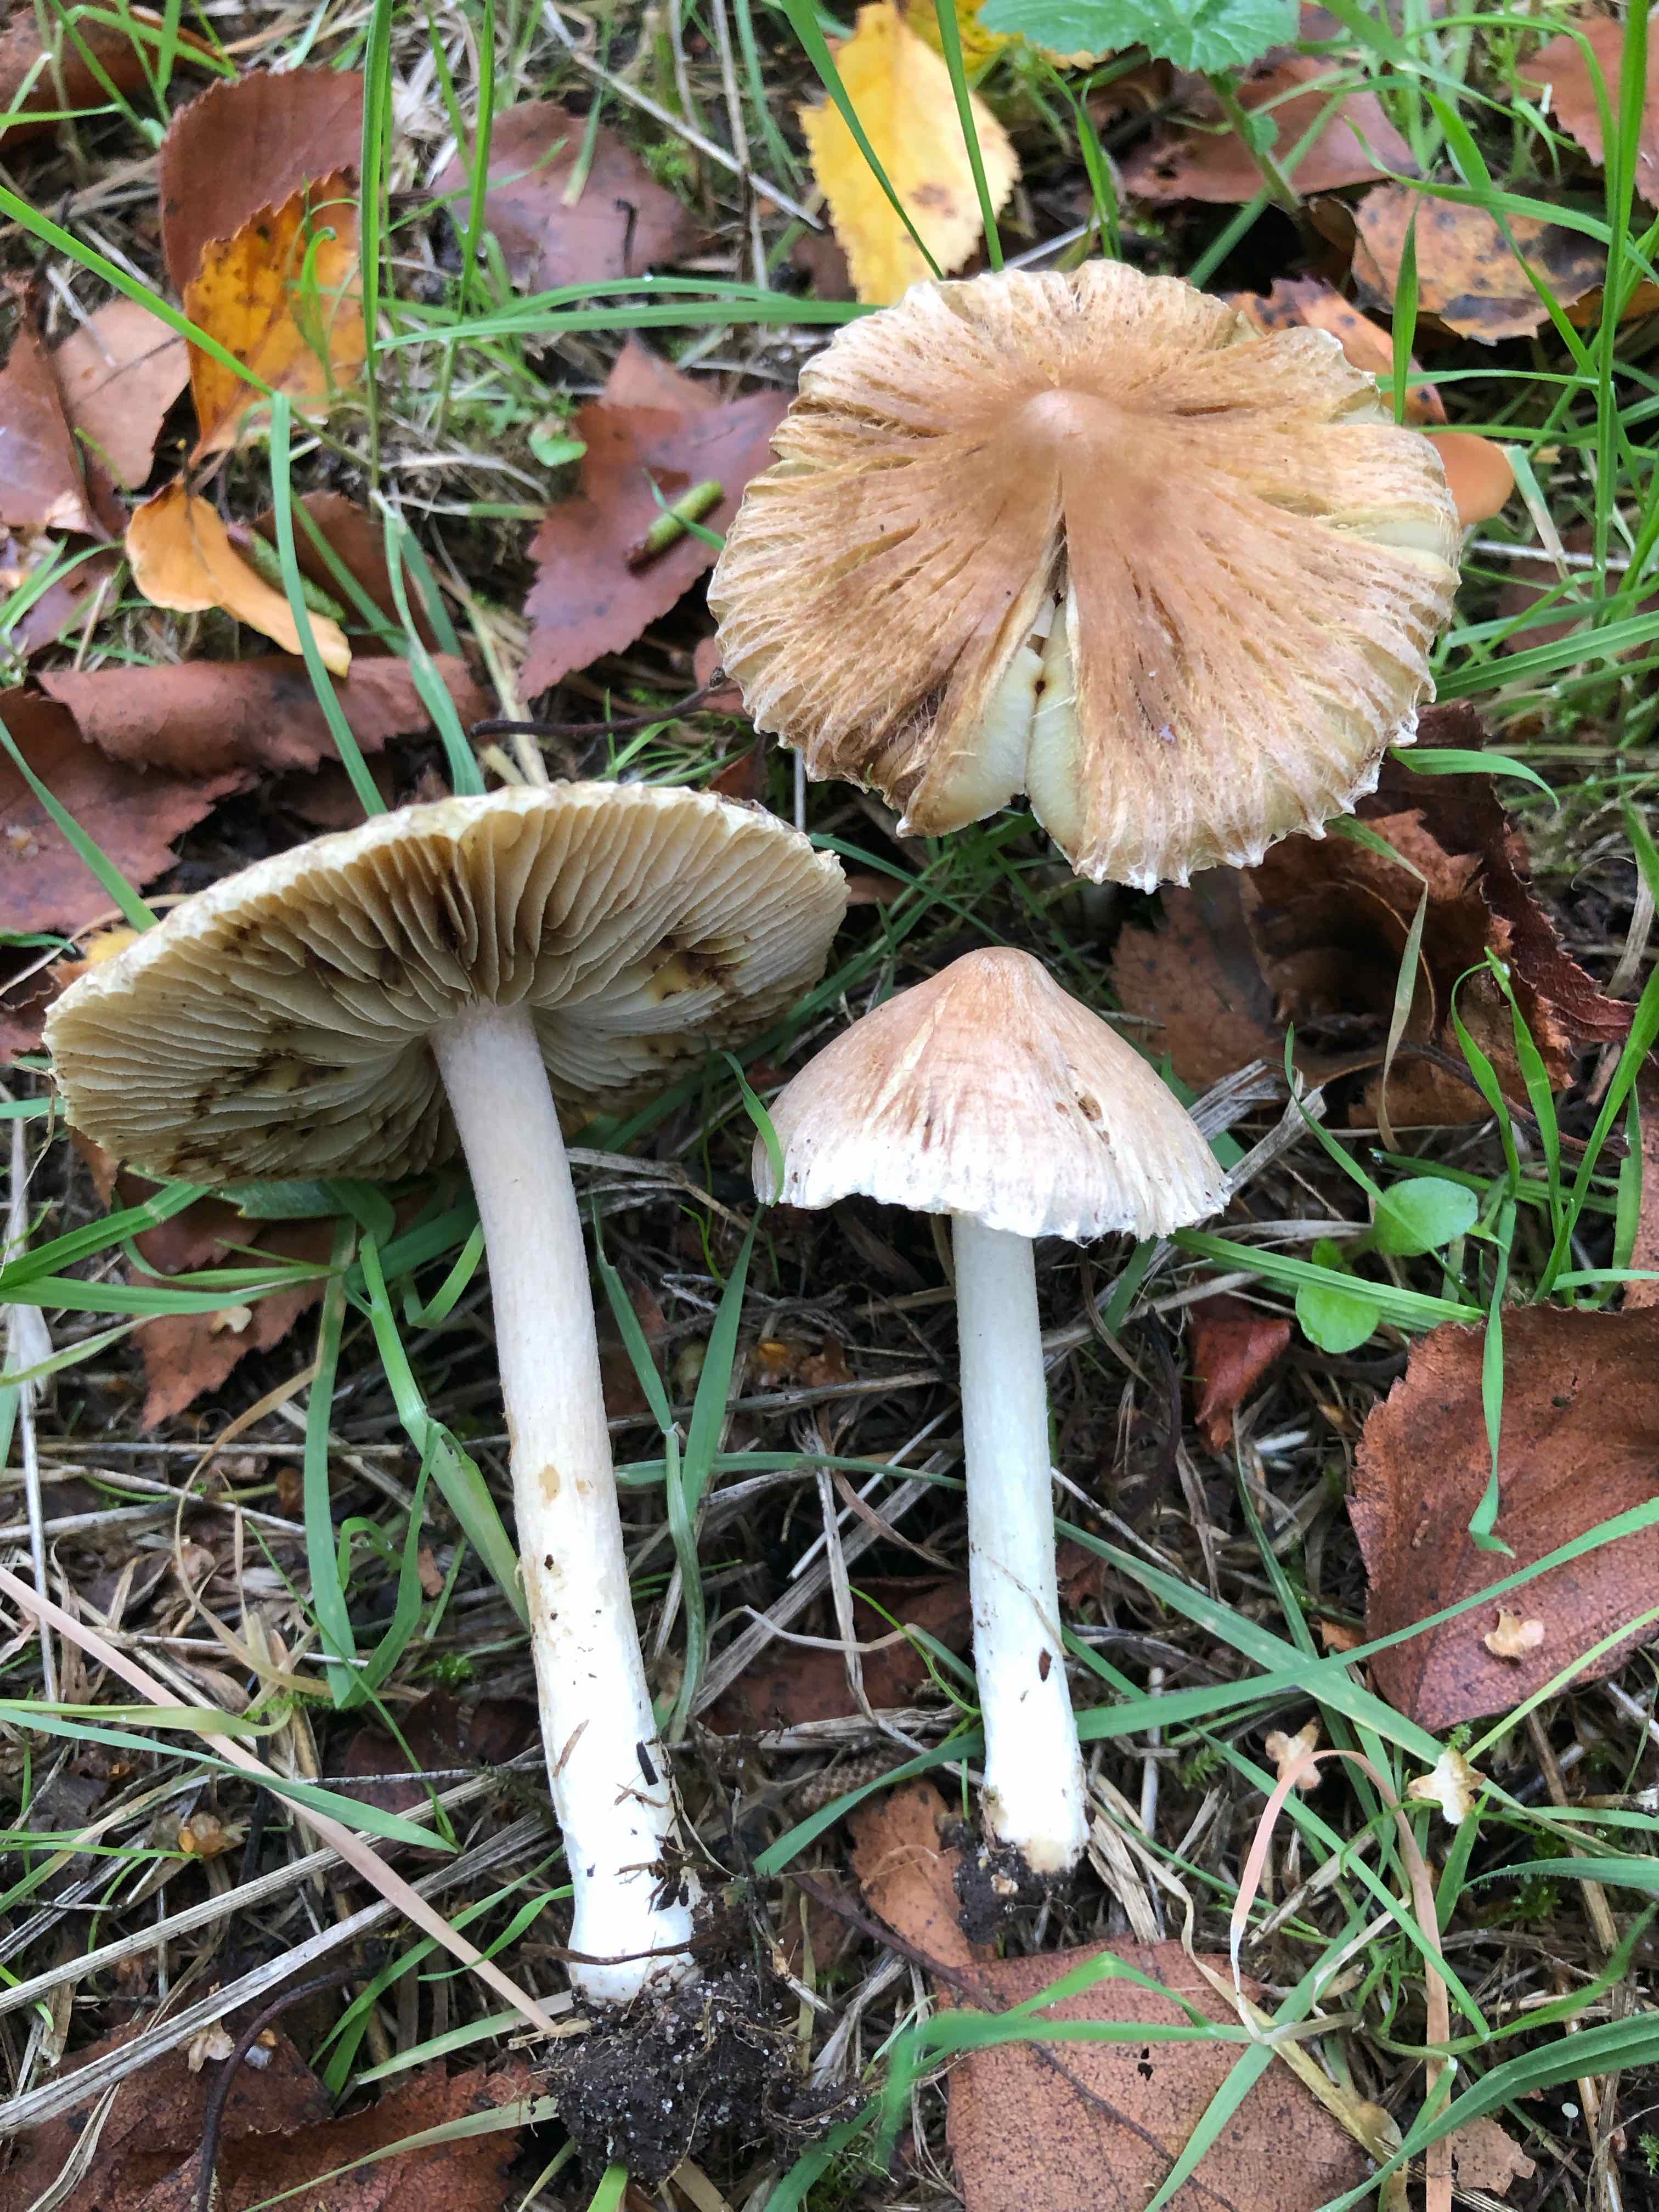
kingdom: Fungi
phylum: Basidiomycota
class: Agaricomycetes
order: Agaricales
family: Inocybaceae
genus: Pseudosperma
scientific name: Pseudosperma
